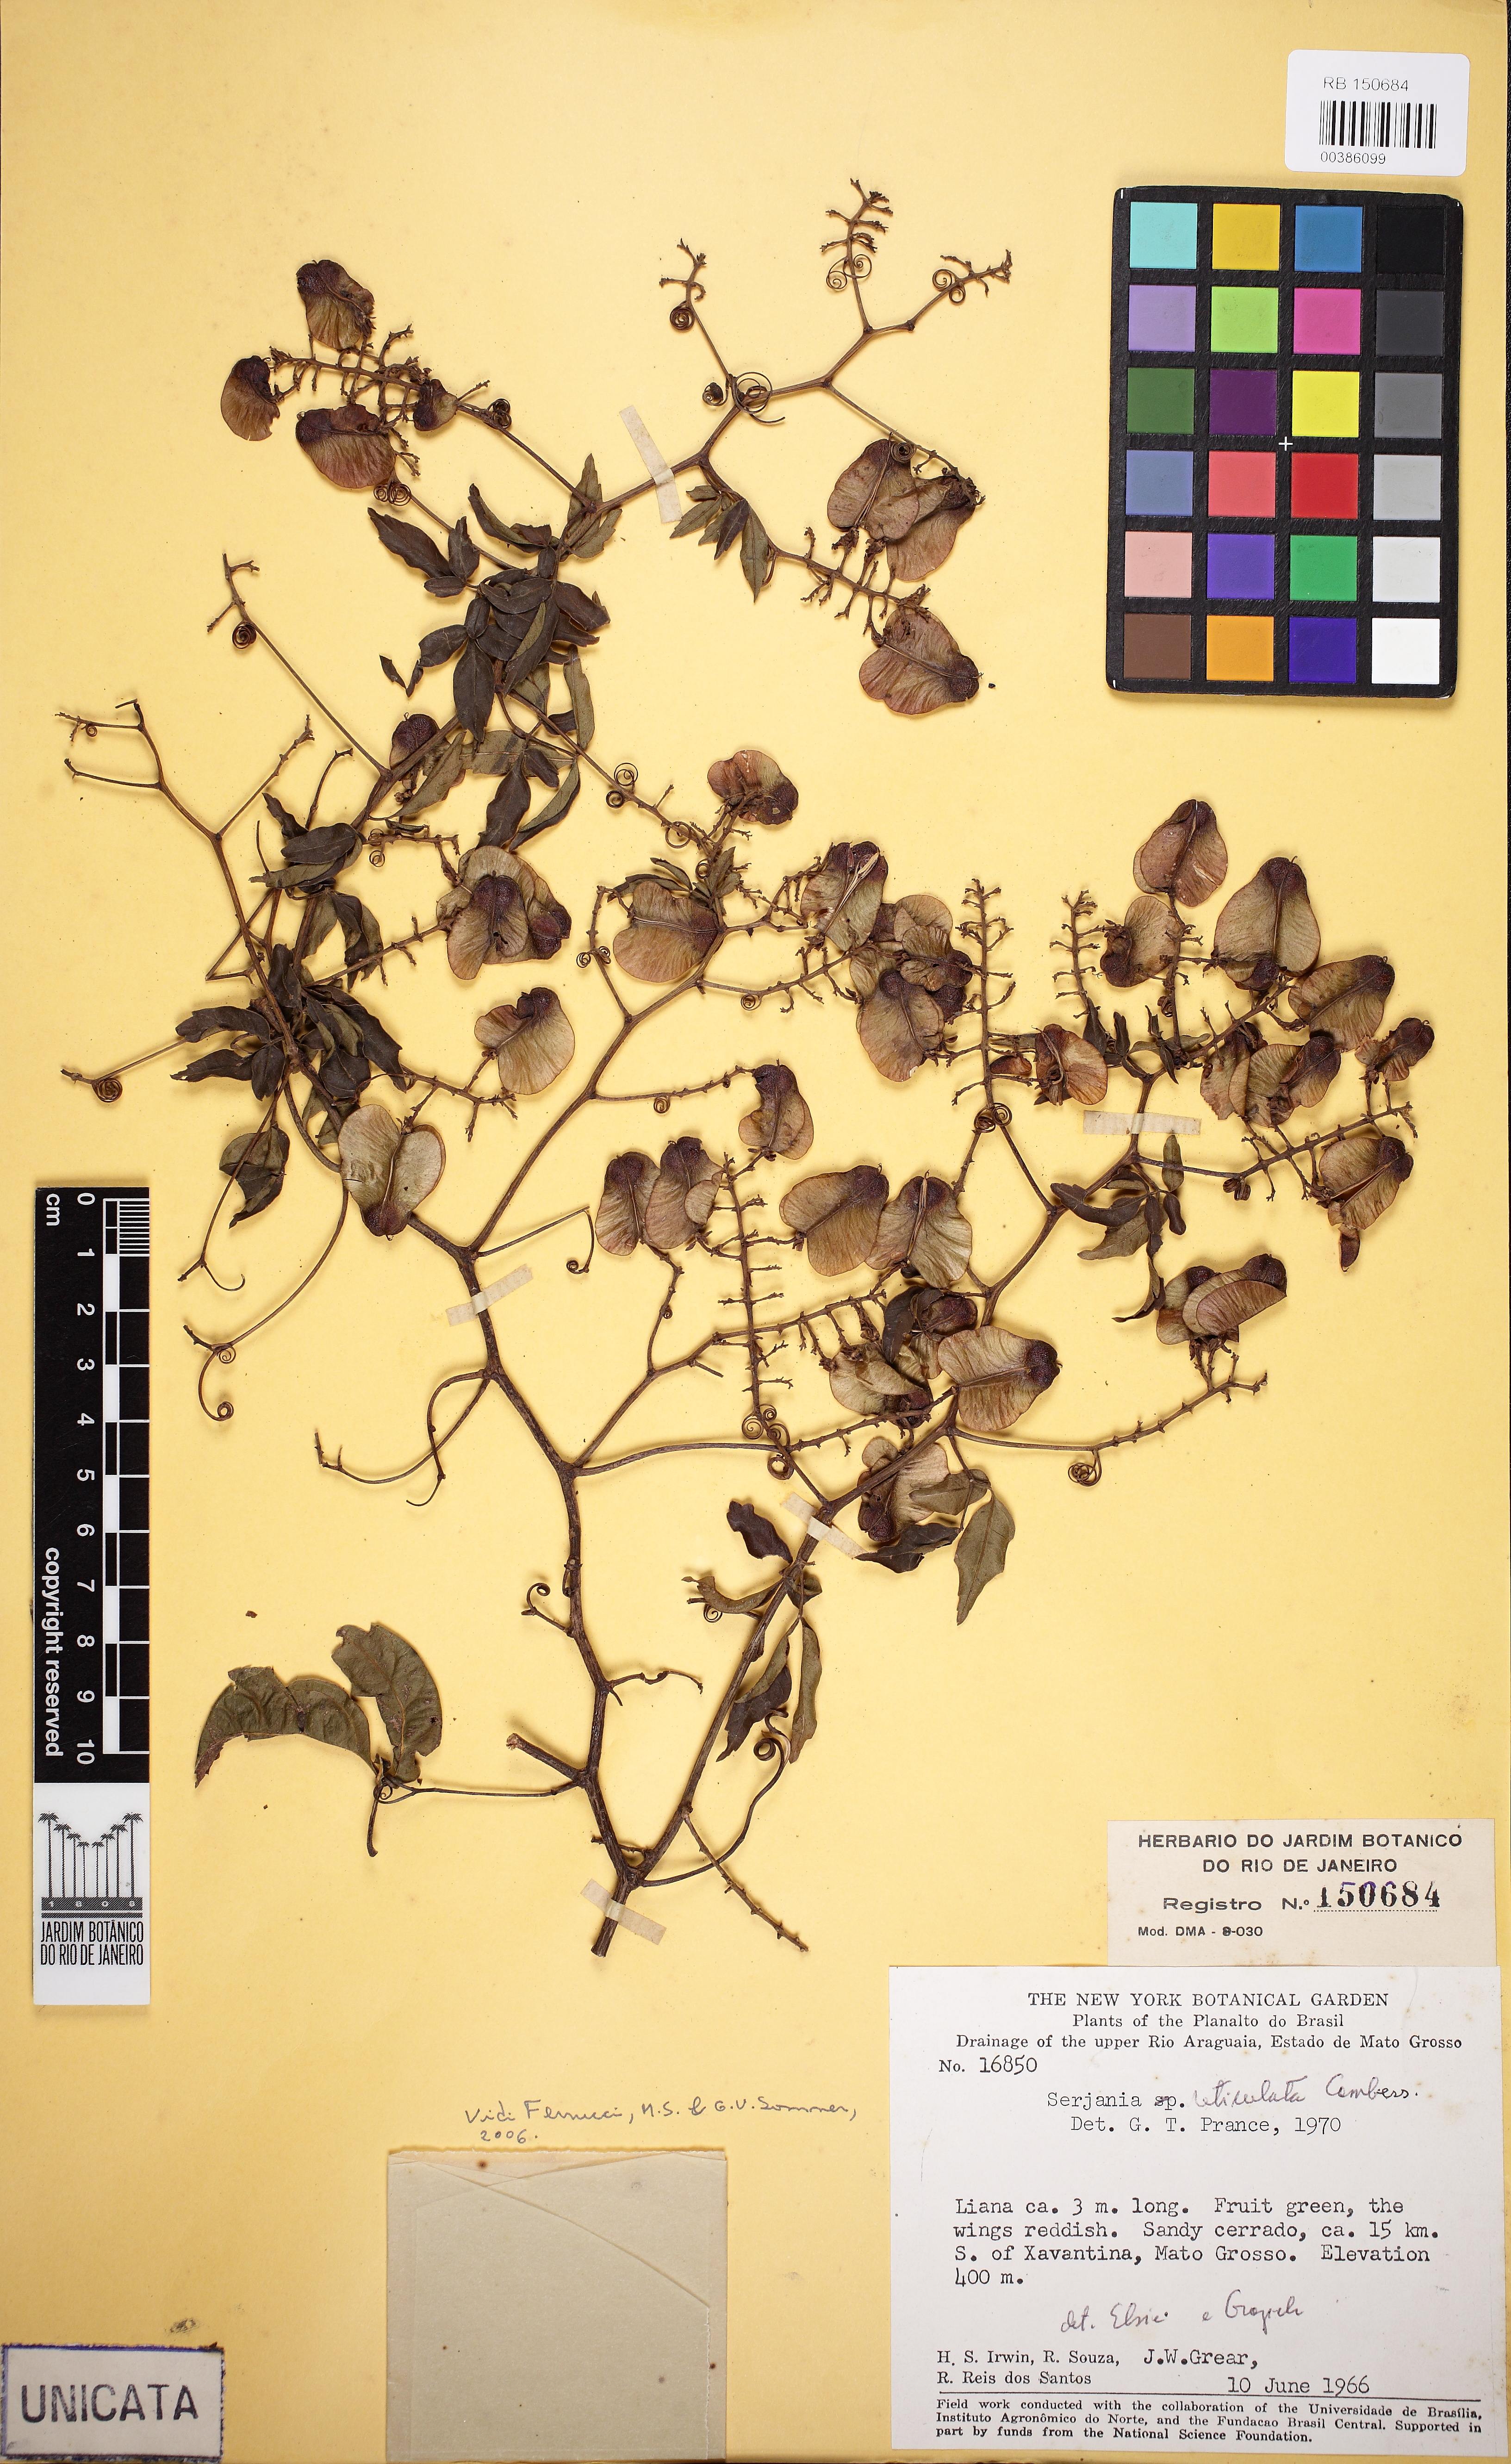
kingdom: Plantae
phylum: Tracheophyta
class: Magnoliopsida
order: Sapindales
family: Sapindaceae
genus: Serjania
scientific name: Serjania reticulata
